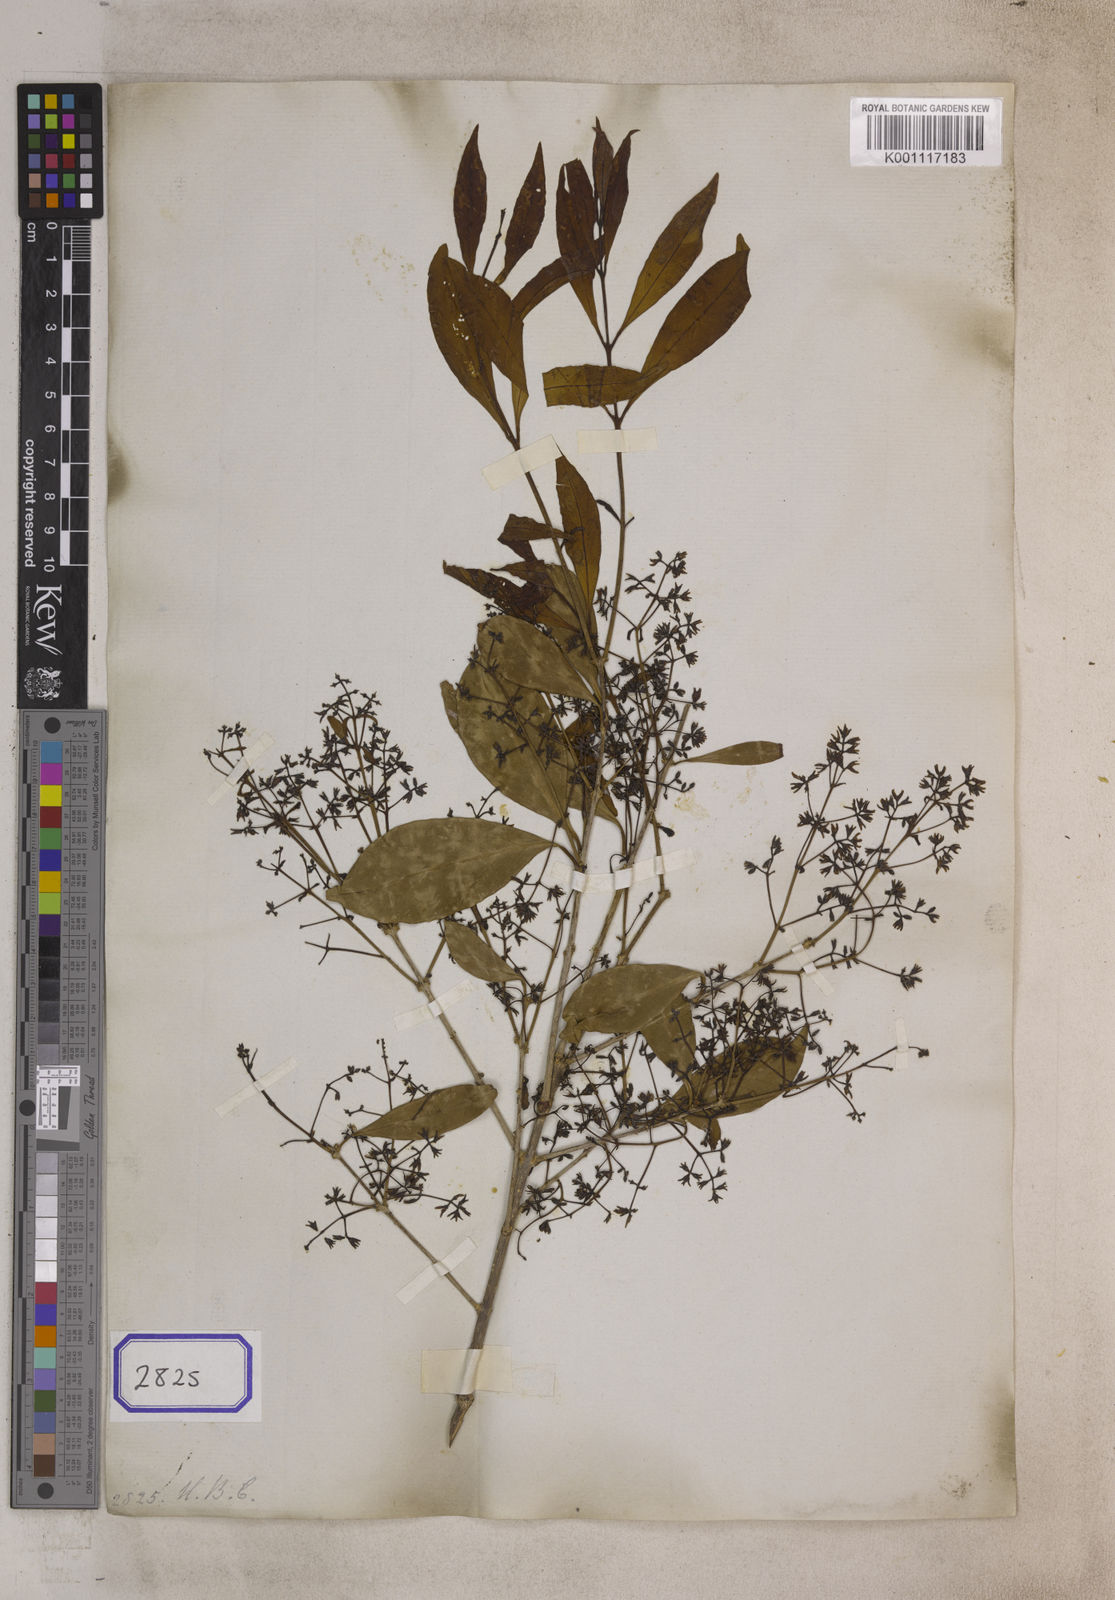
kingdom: Plantae
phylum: Tracheophyta
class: Magnoliopsida
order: Lamiales
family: Oleaceae
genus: Chionanthus
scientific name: Chionanthus
